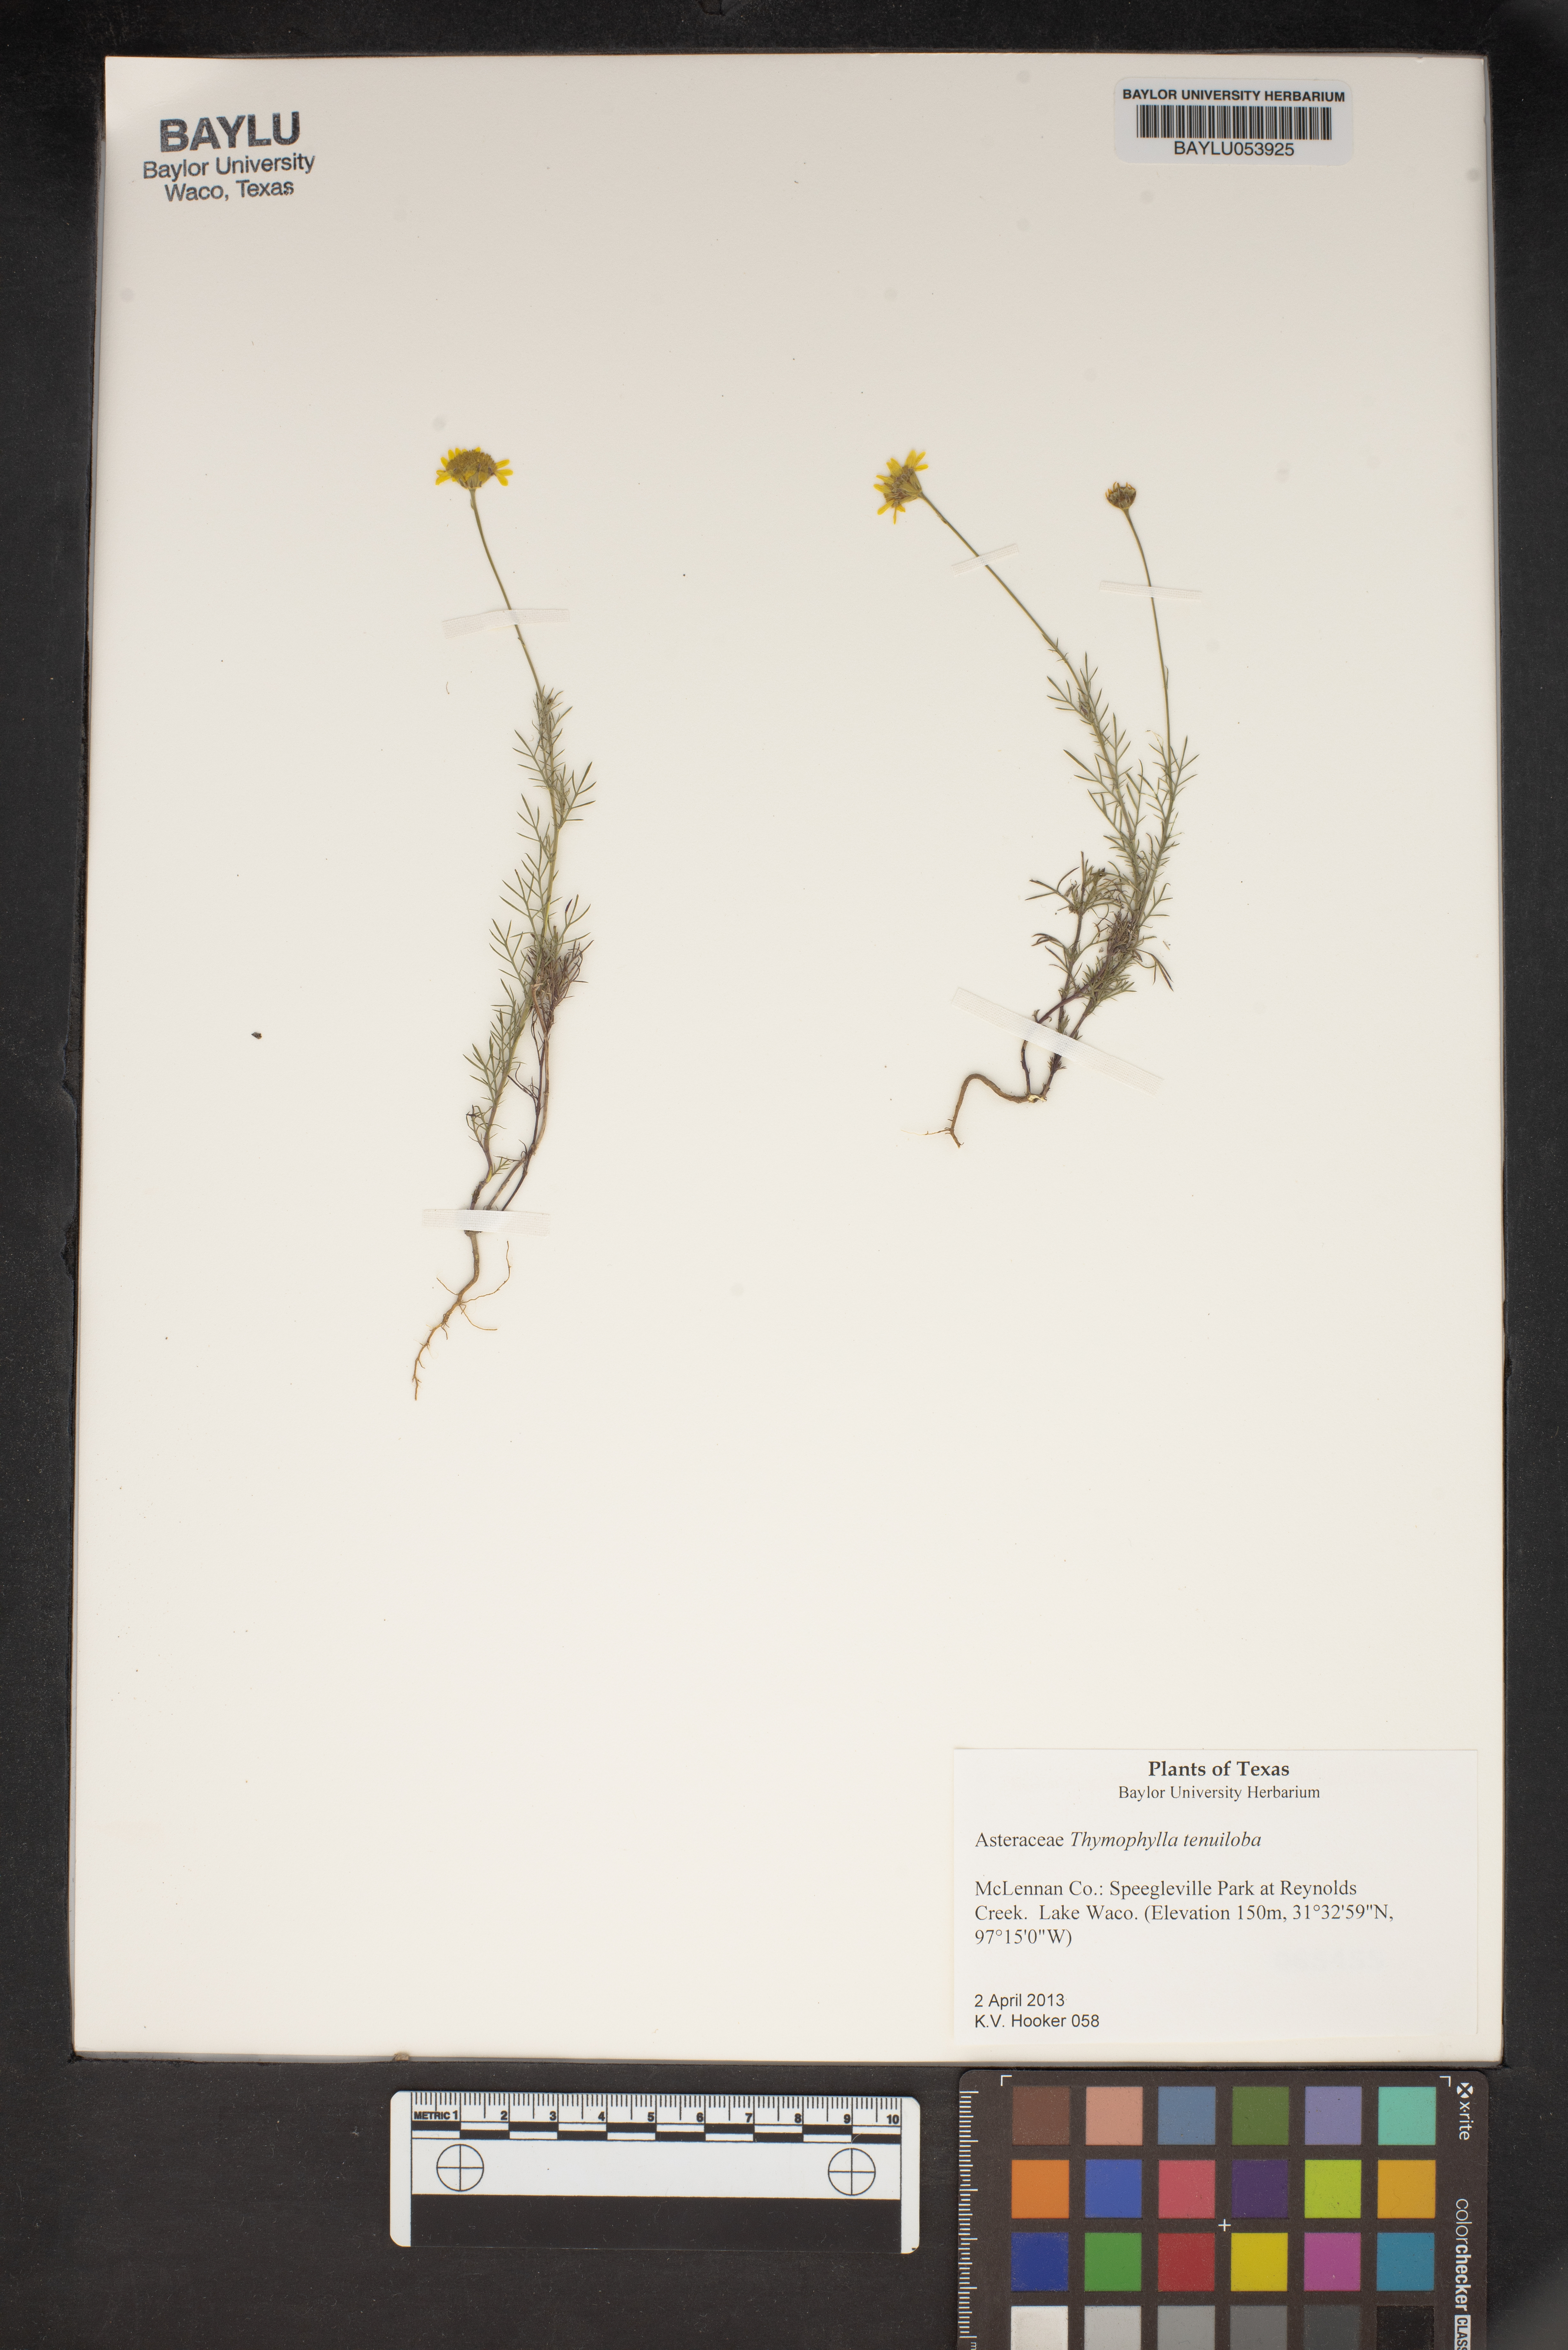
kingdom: Plantae
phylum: Tracheophyta
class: Magnoliopsida
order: Asterales
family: Asteraceae
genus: Thymophylla
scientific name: Thymophylla tenuiloba
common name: Dahlberg's daisy
